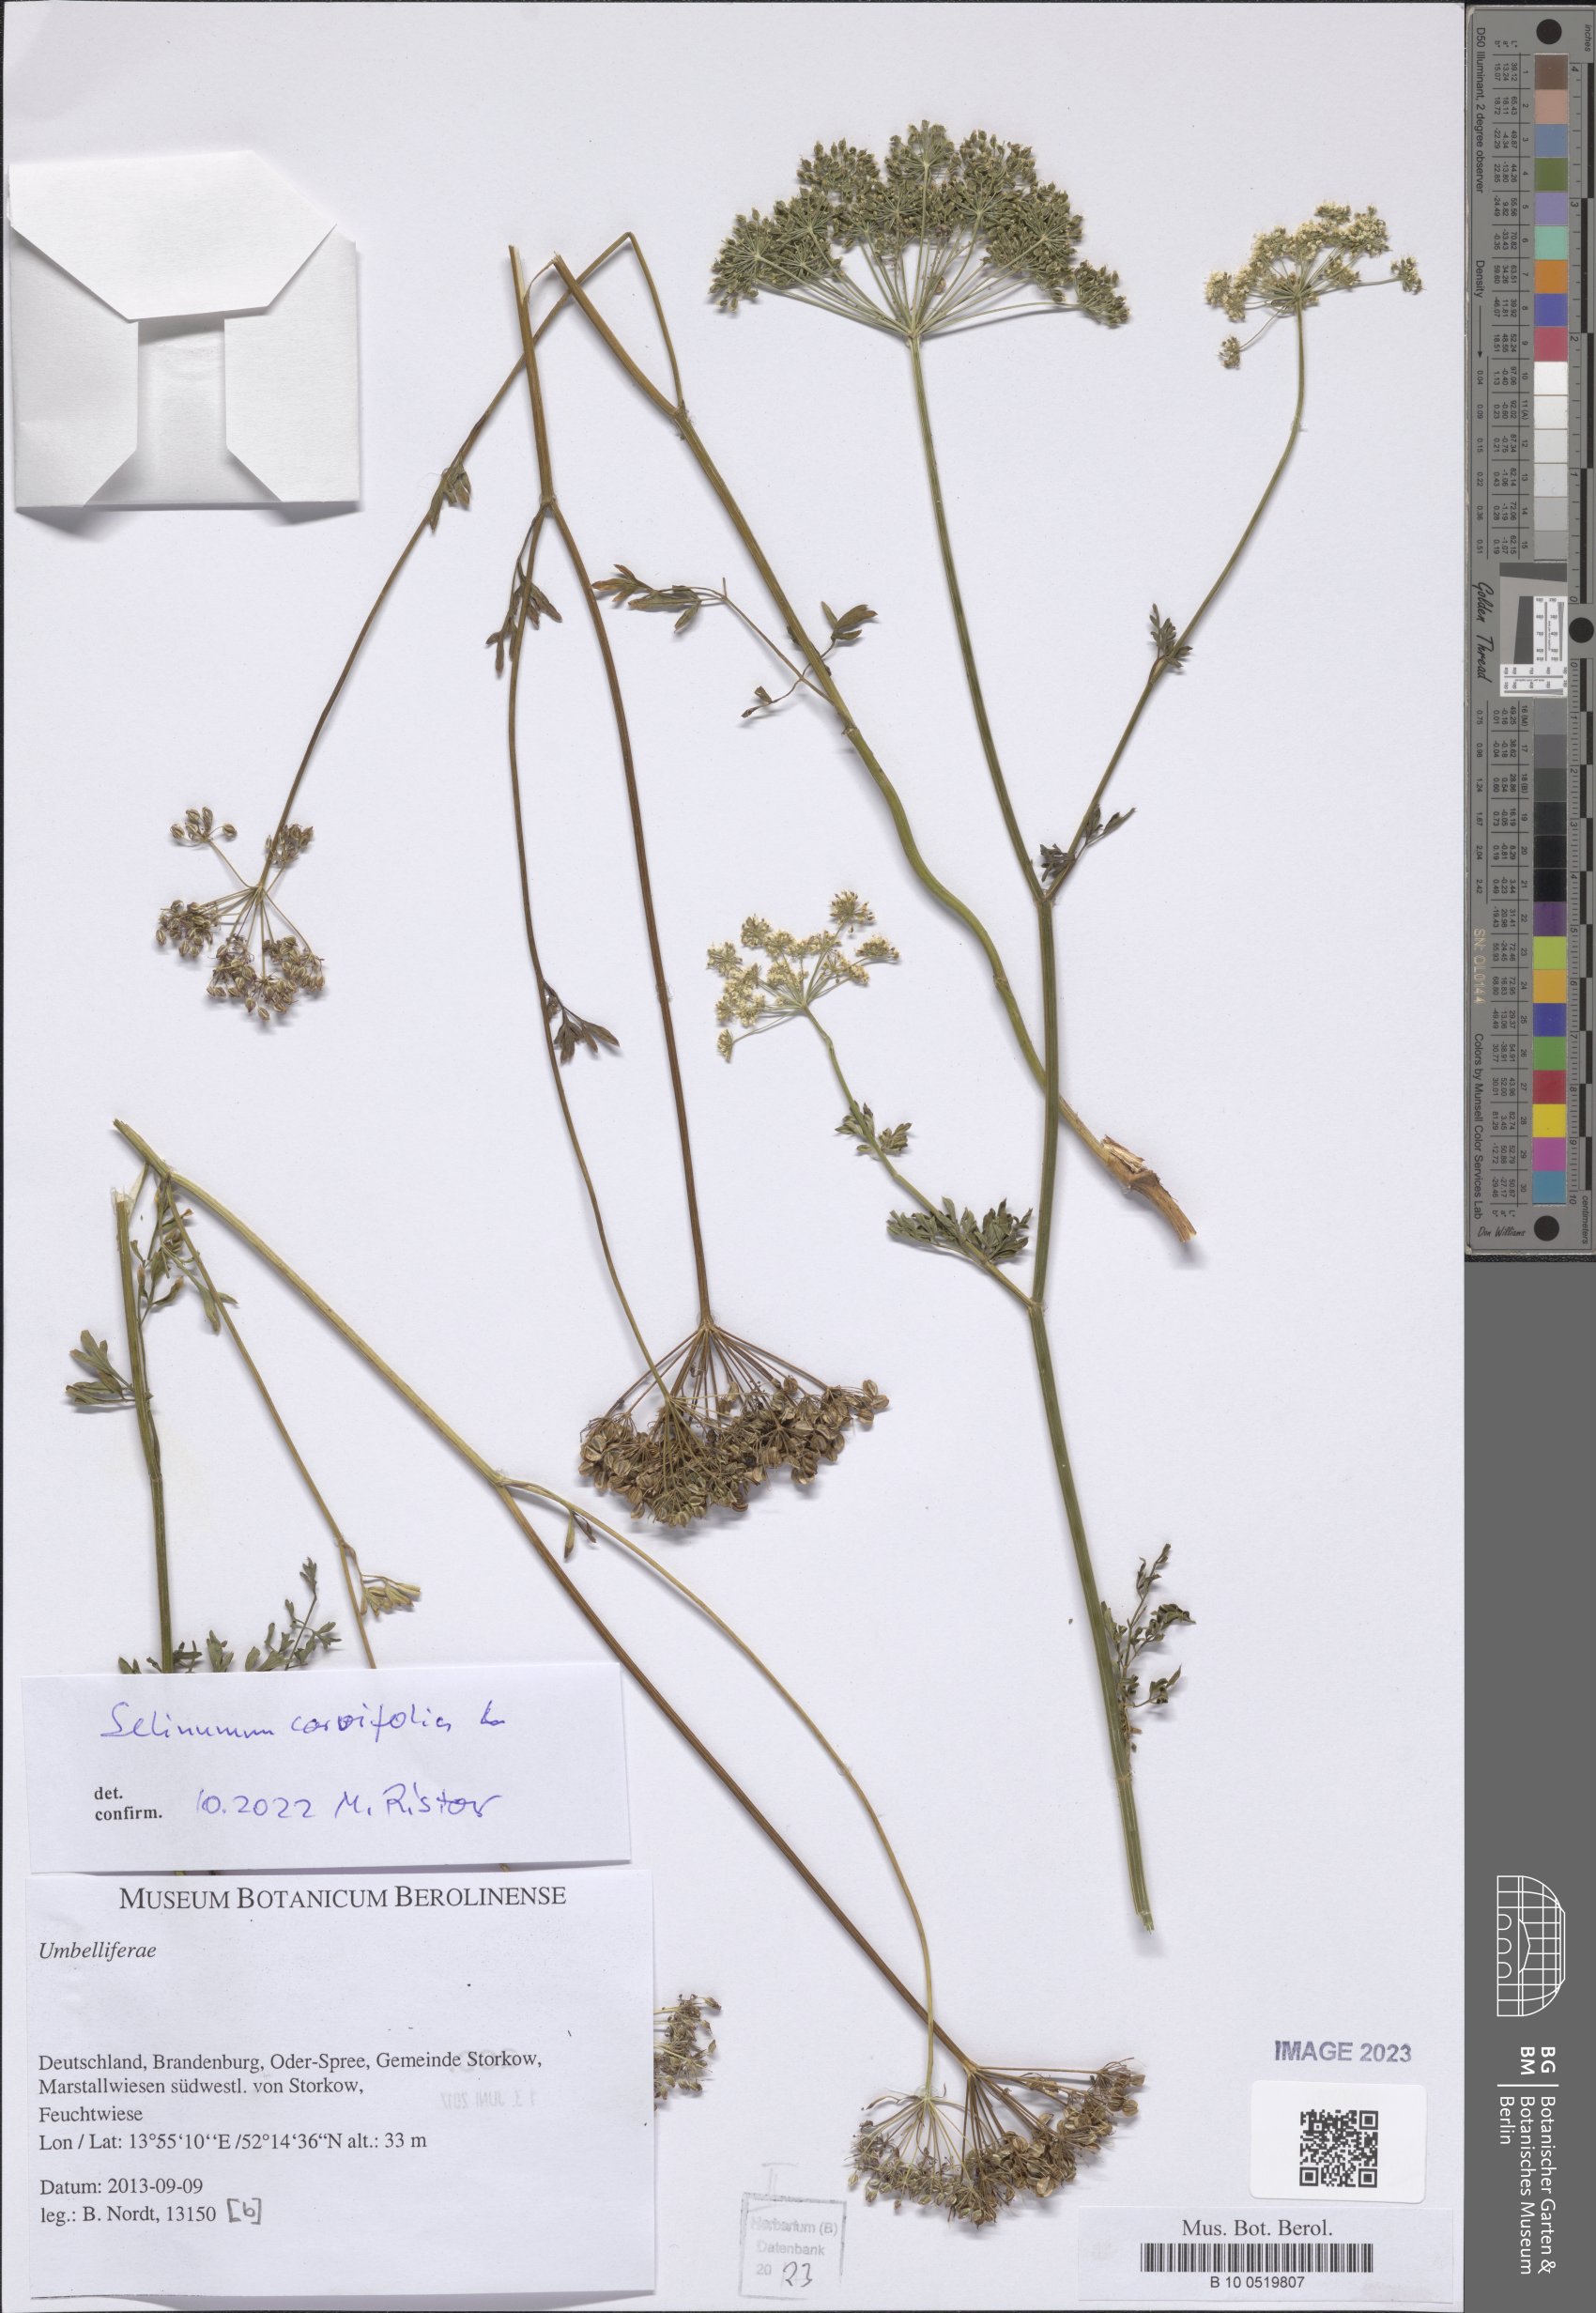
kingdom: Plantae
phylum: Tracheophyta
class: Magnoliopsida
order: Apiales
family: Apiaceae
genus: Selinum
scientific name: Selinum carvifolia
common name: Cambridge milk-parsley
